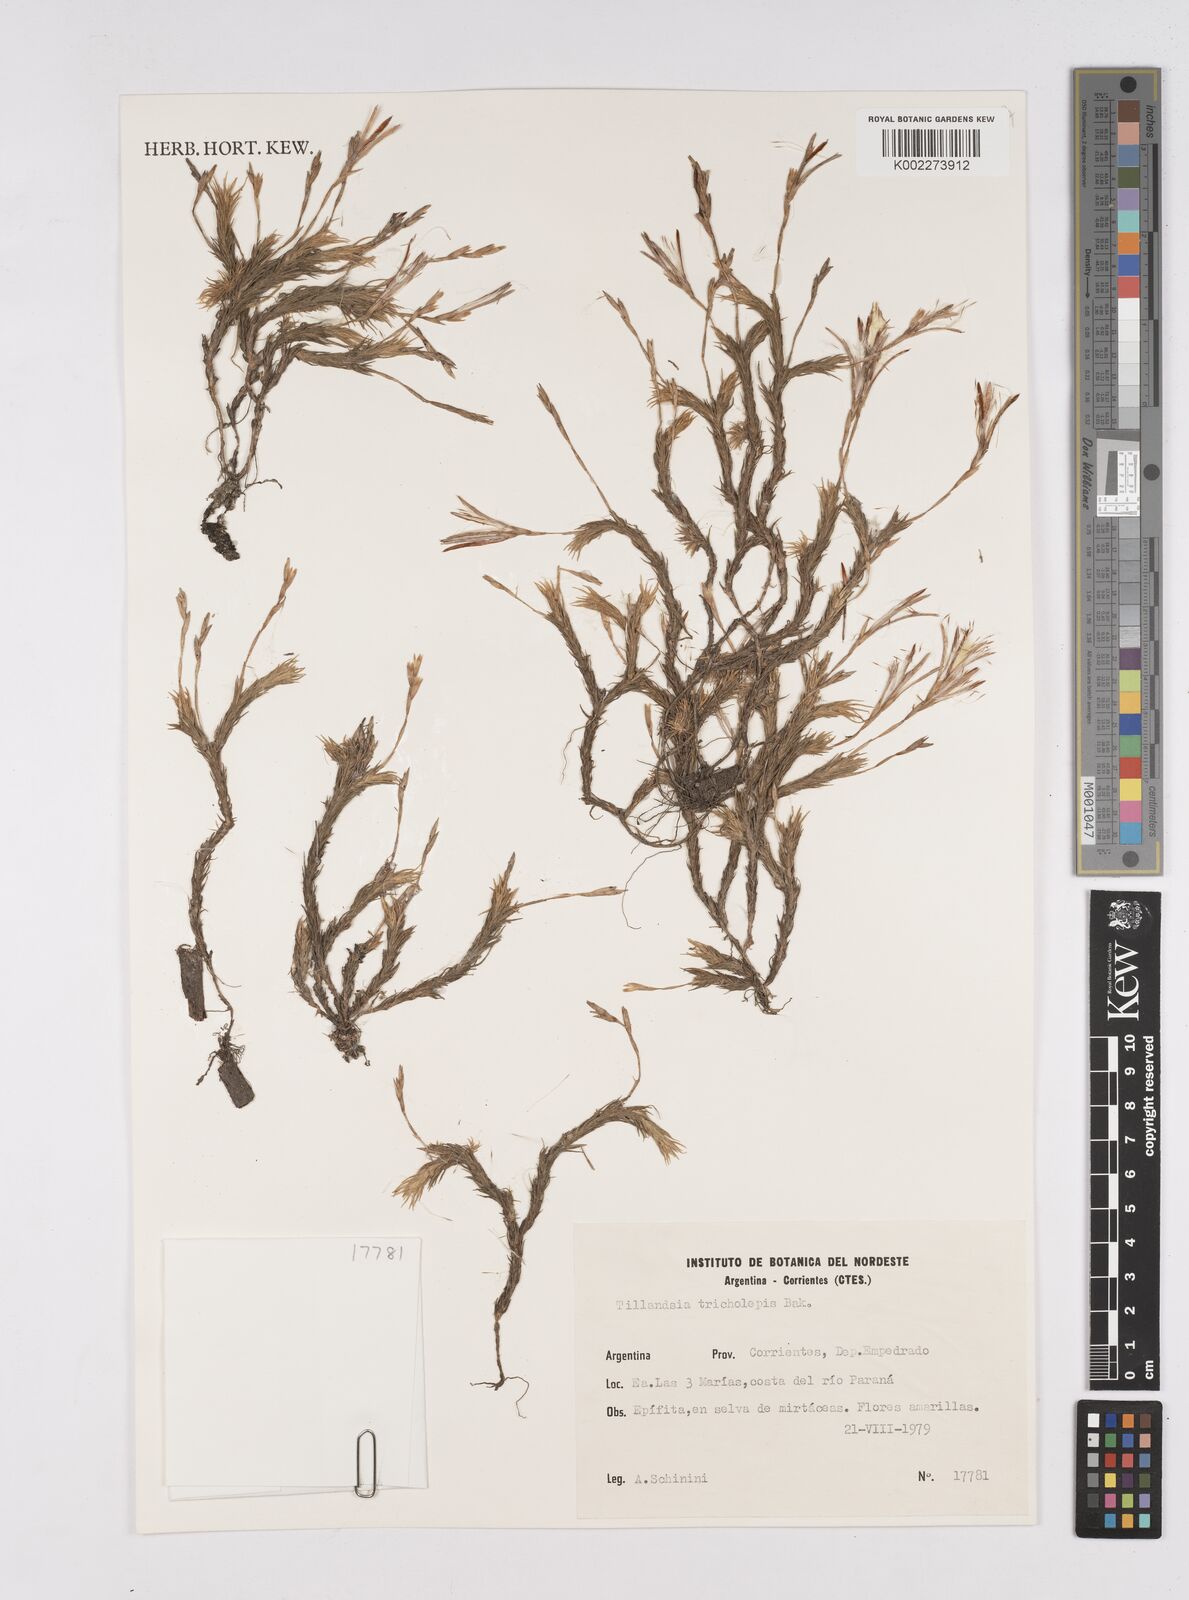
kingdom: Plantae
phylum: Tracheophyta
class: Liliopsida
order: Poales
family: Bromeliaceae
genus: Tillandsia
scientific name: Tillandsia tricholepis
